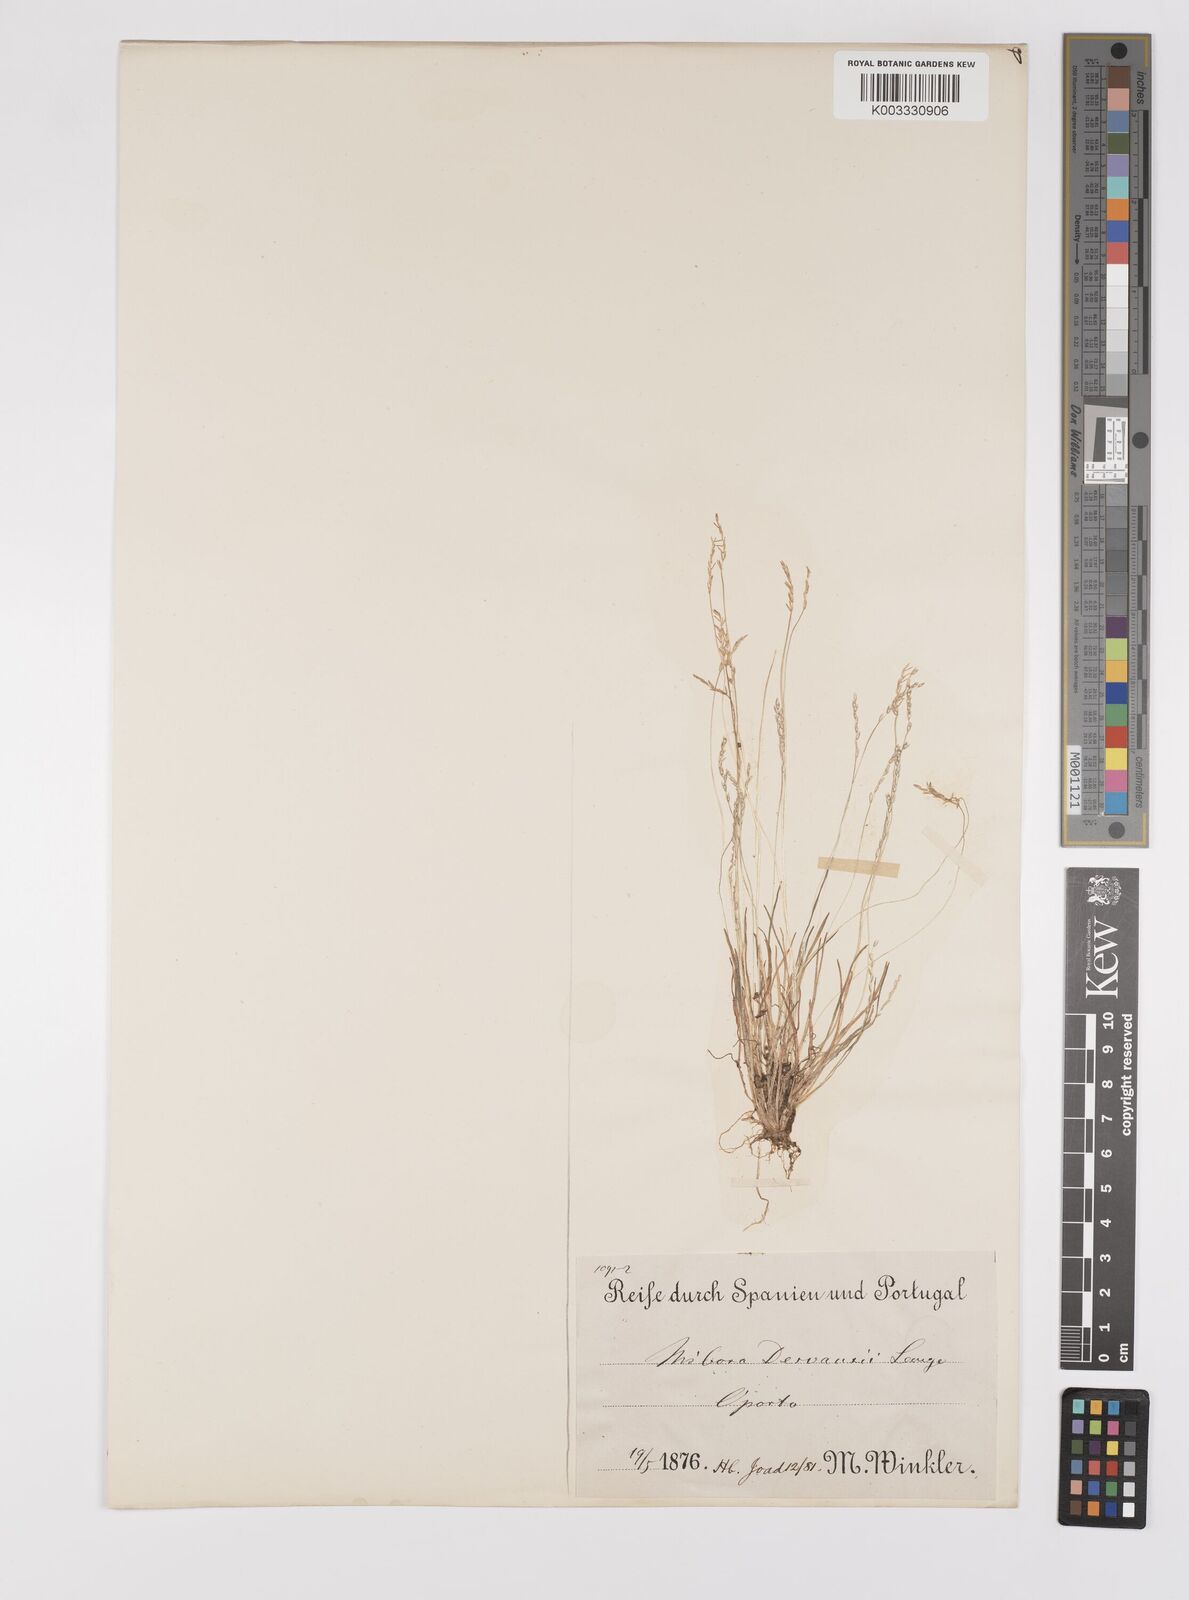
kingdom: Plantae
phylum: Tracheophyta
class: Liliopsida
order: Poales
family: Poaceae
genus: Mibora
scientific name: Mibora minima
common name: Early sand-grass
